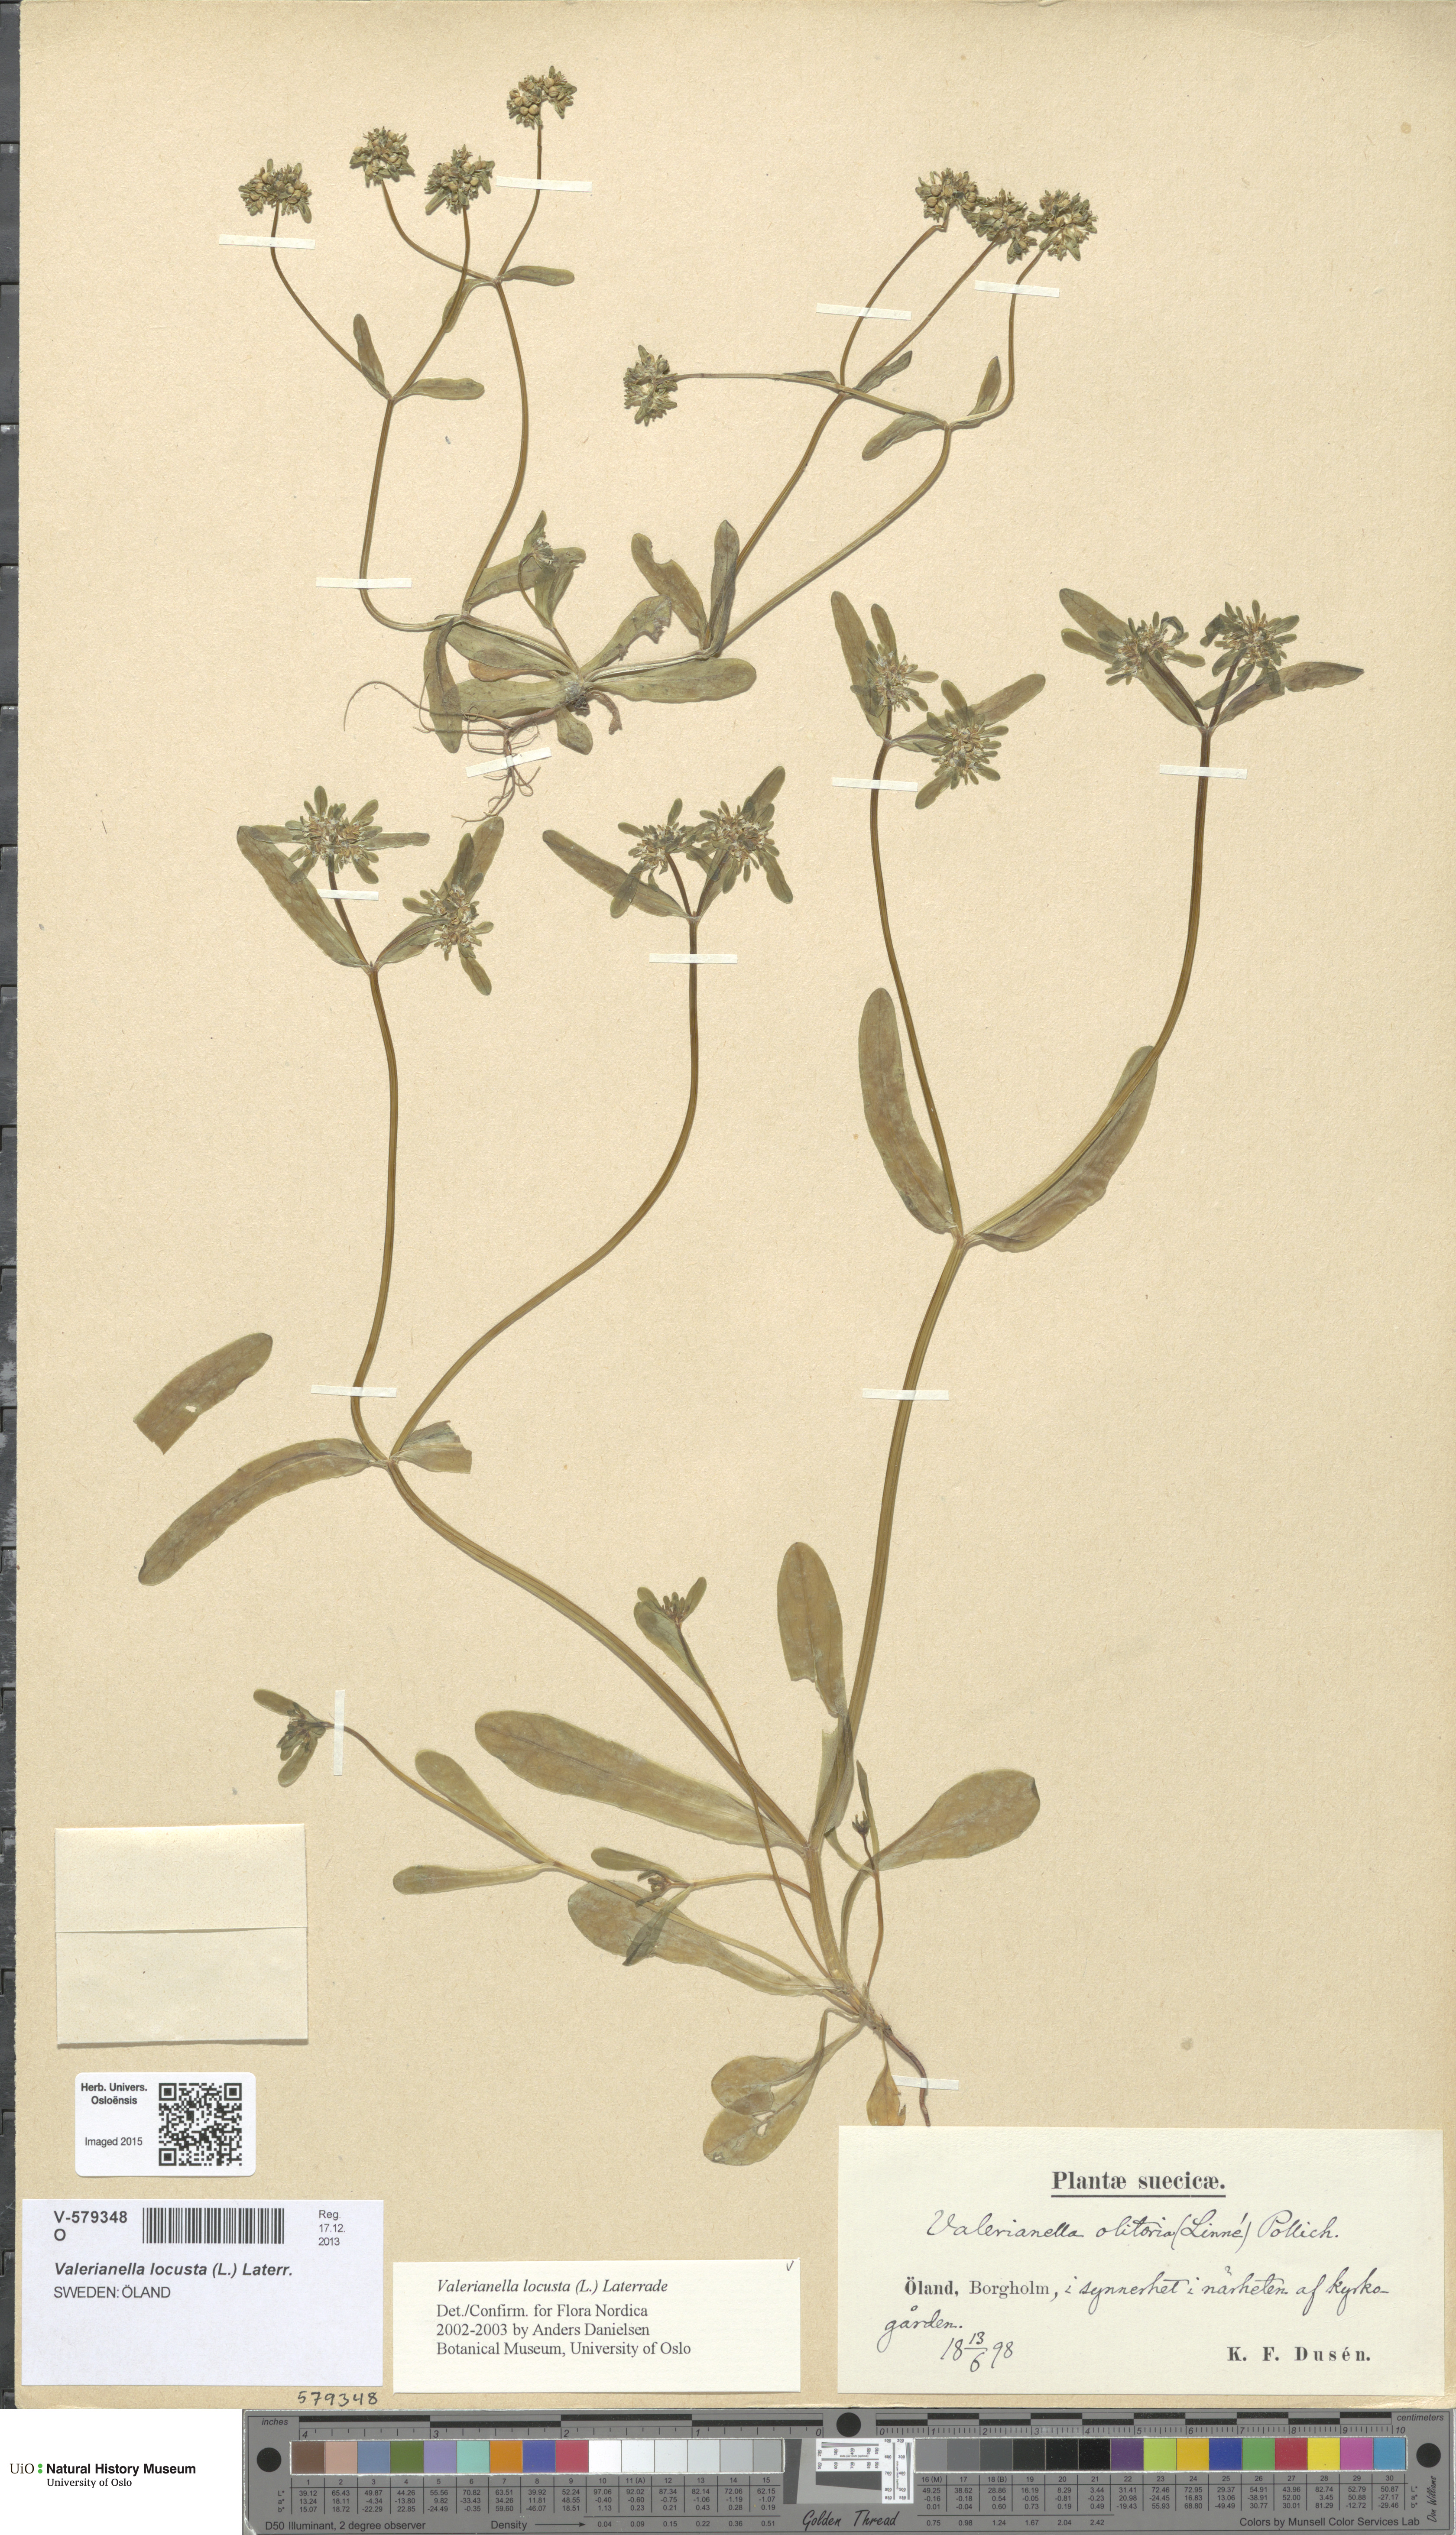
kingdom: Plantae
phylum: Tracheophyta
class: Magnoliopsida
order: Dipsacales
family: Caprifoliaceae
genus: Valerianella
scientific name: Valerianella locusta
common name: Common cornsalad
